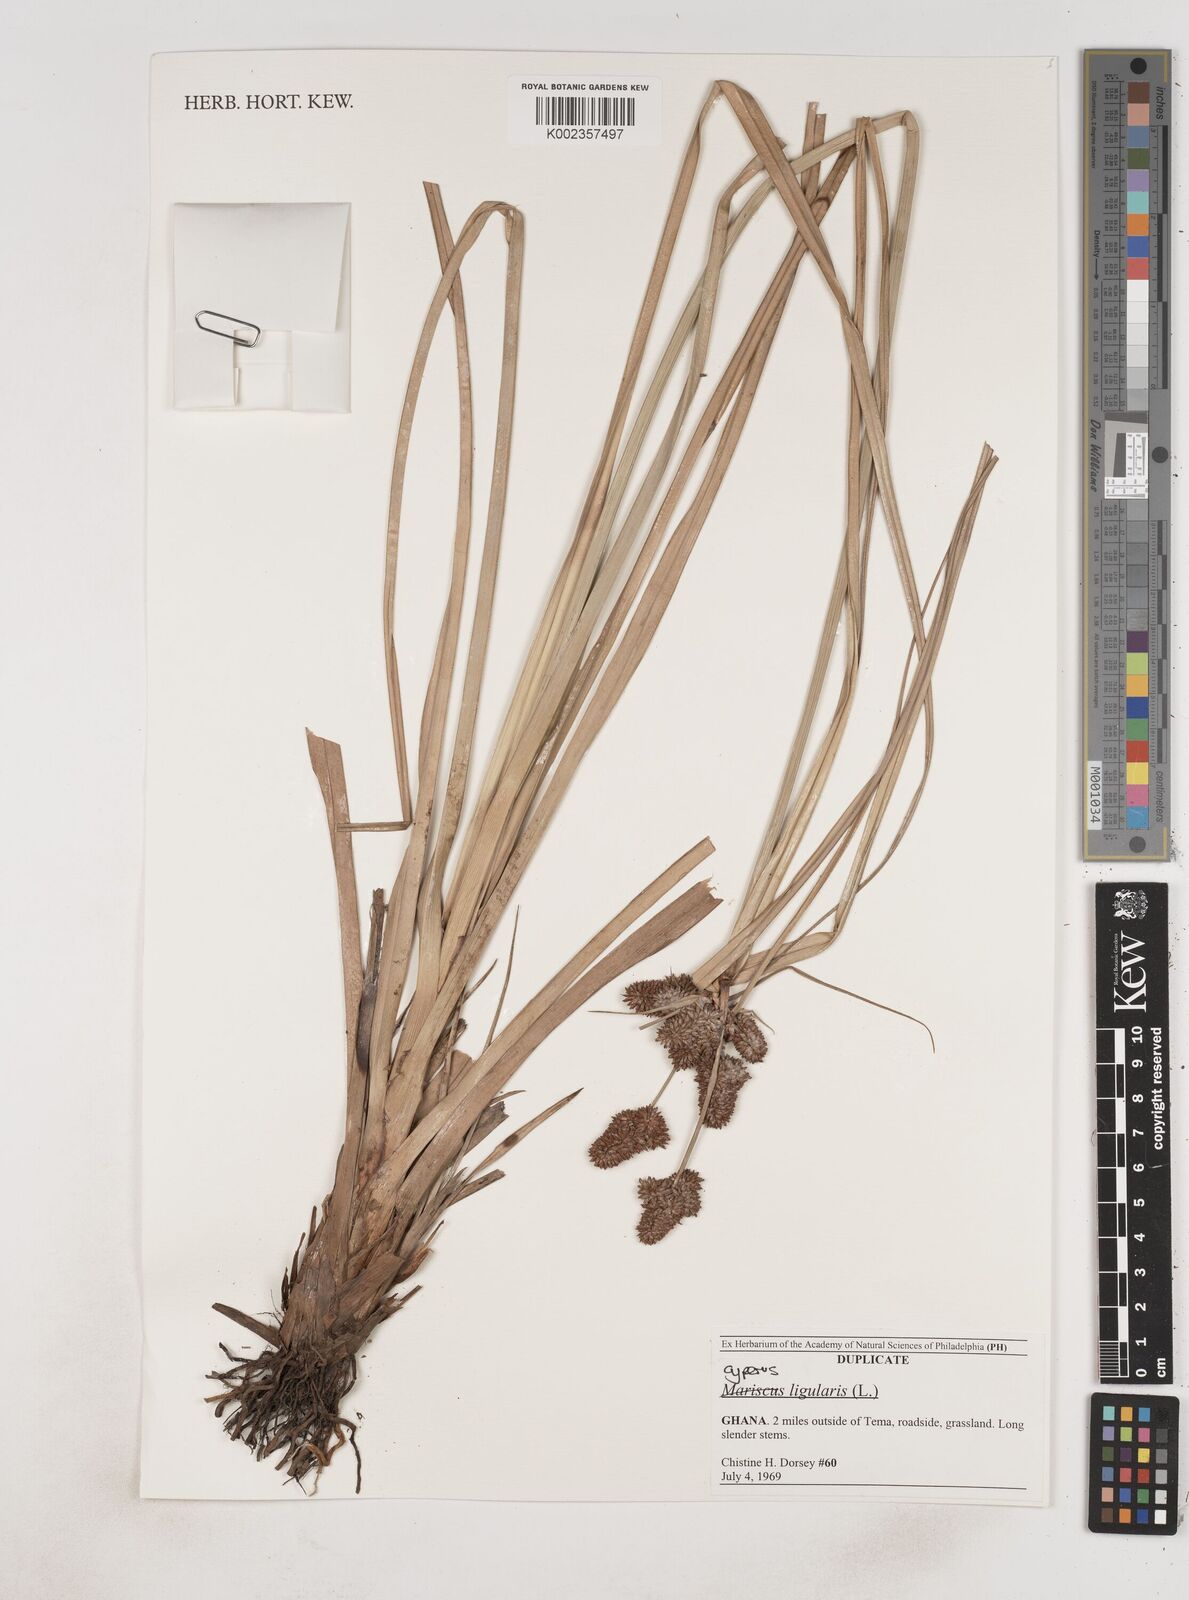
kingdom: Plantae
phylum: Tracheophyta
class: Liliopsida
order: Poales
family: Cyperaceae
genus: Cyperus
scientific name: Cyperus ligularis
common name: Swamp flat sedge
